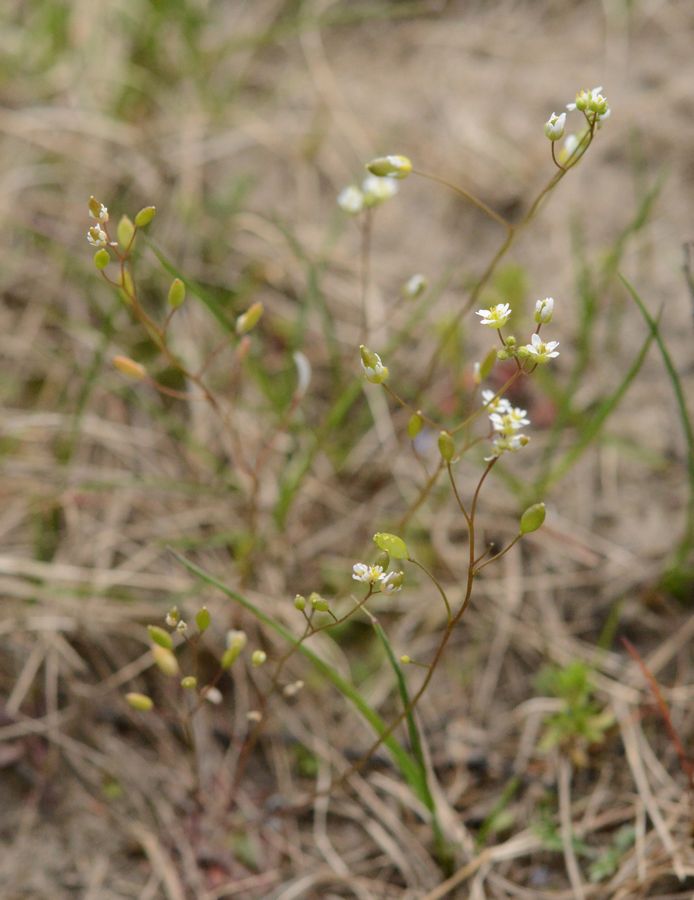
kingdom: Plantae
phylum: Tracheophyta
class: Magnoliopsida
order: Brassicales
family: Brassicaceae
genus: Draba
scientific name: Draba verna
